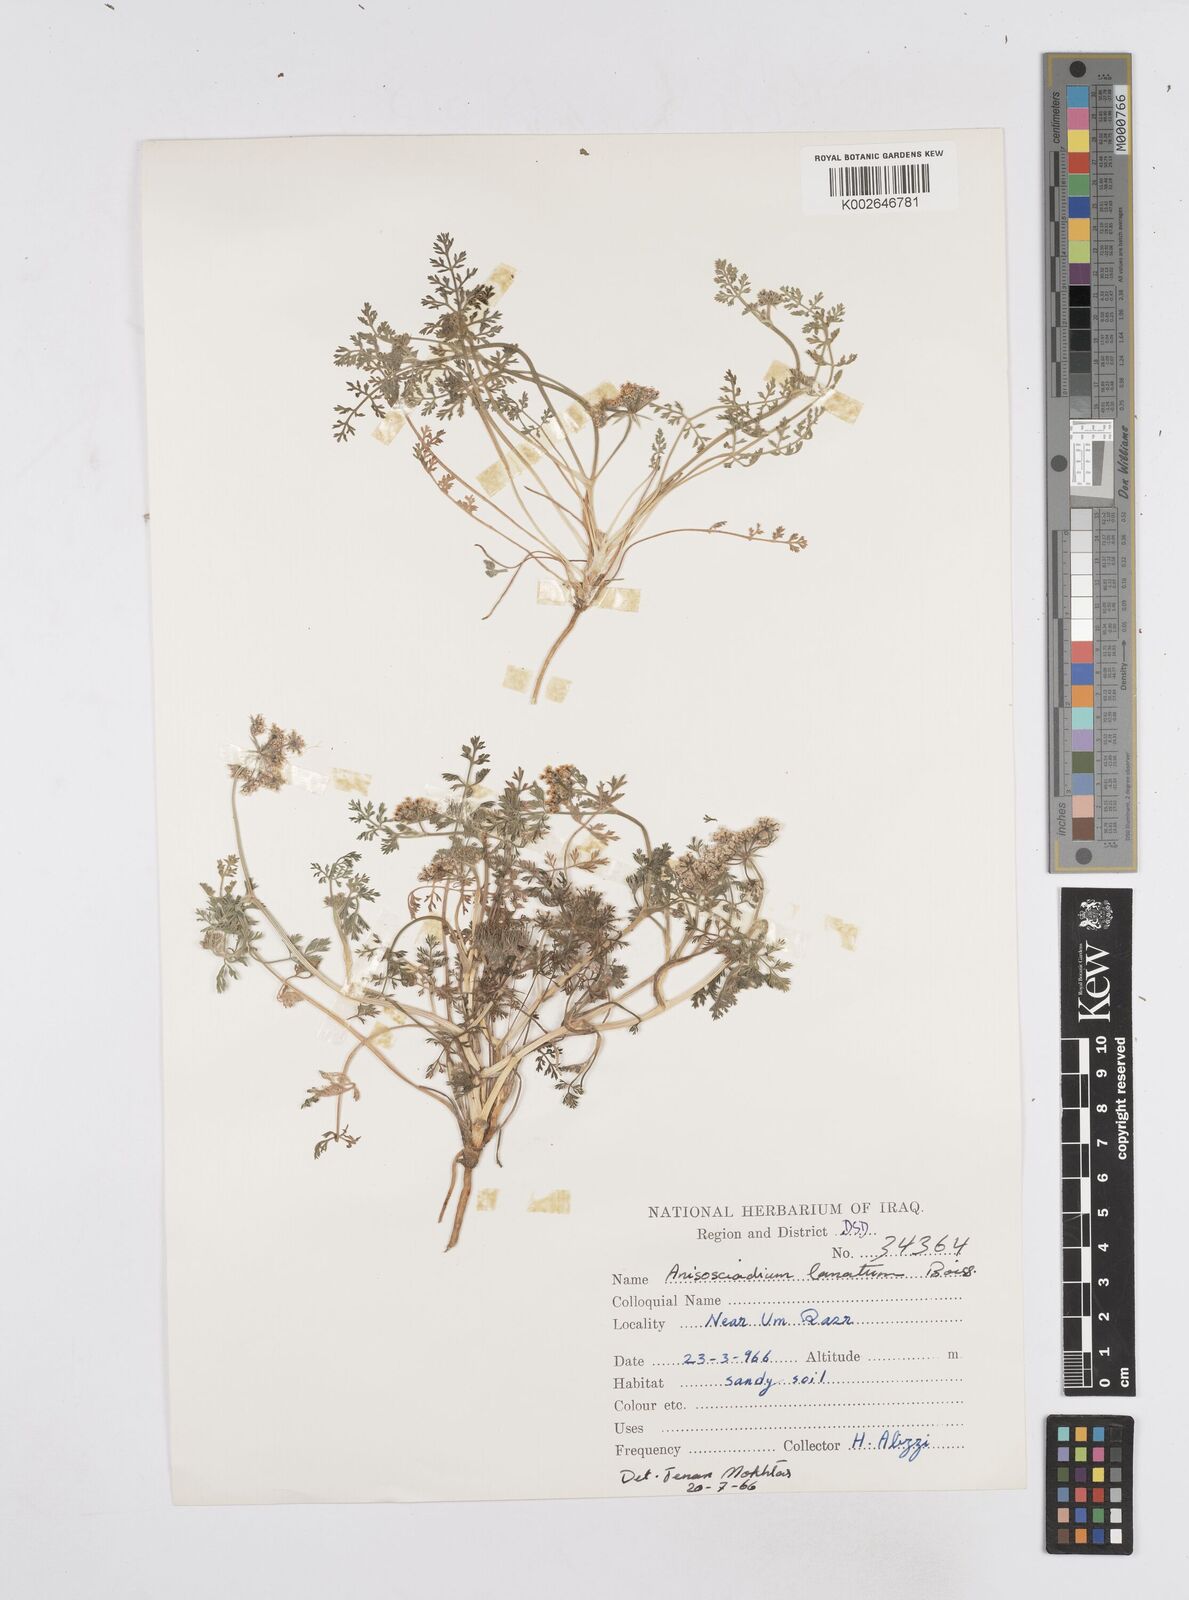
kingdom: Plantae
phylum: Tracheophyta
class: Magnoliopsida
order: Apiales
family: Apiaceae
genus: Anisosciadium
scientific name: Anisosciadium lanatum
